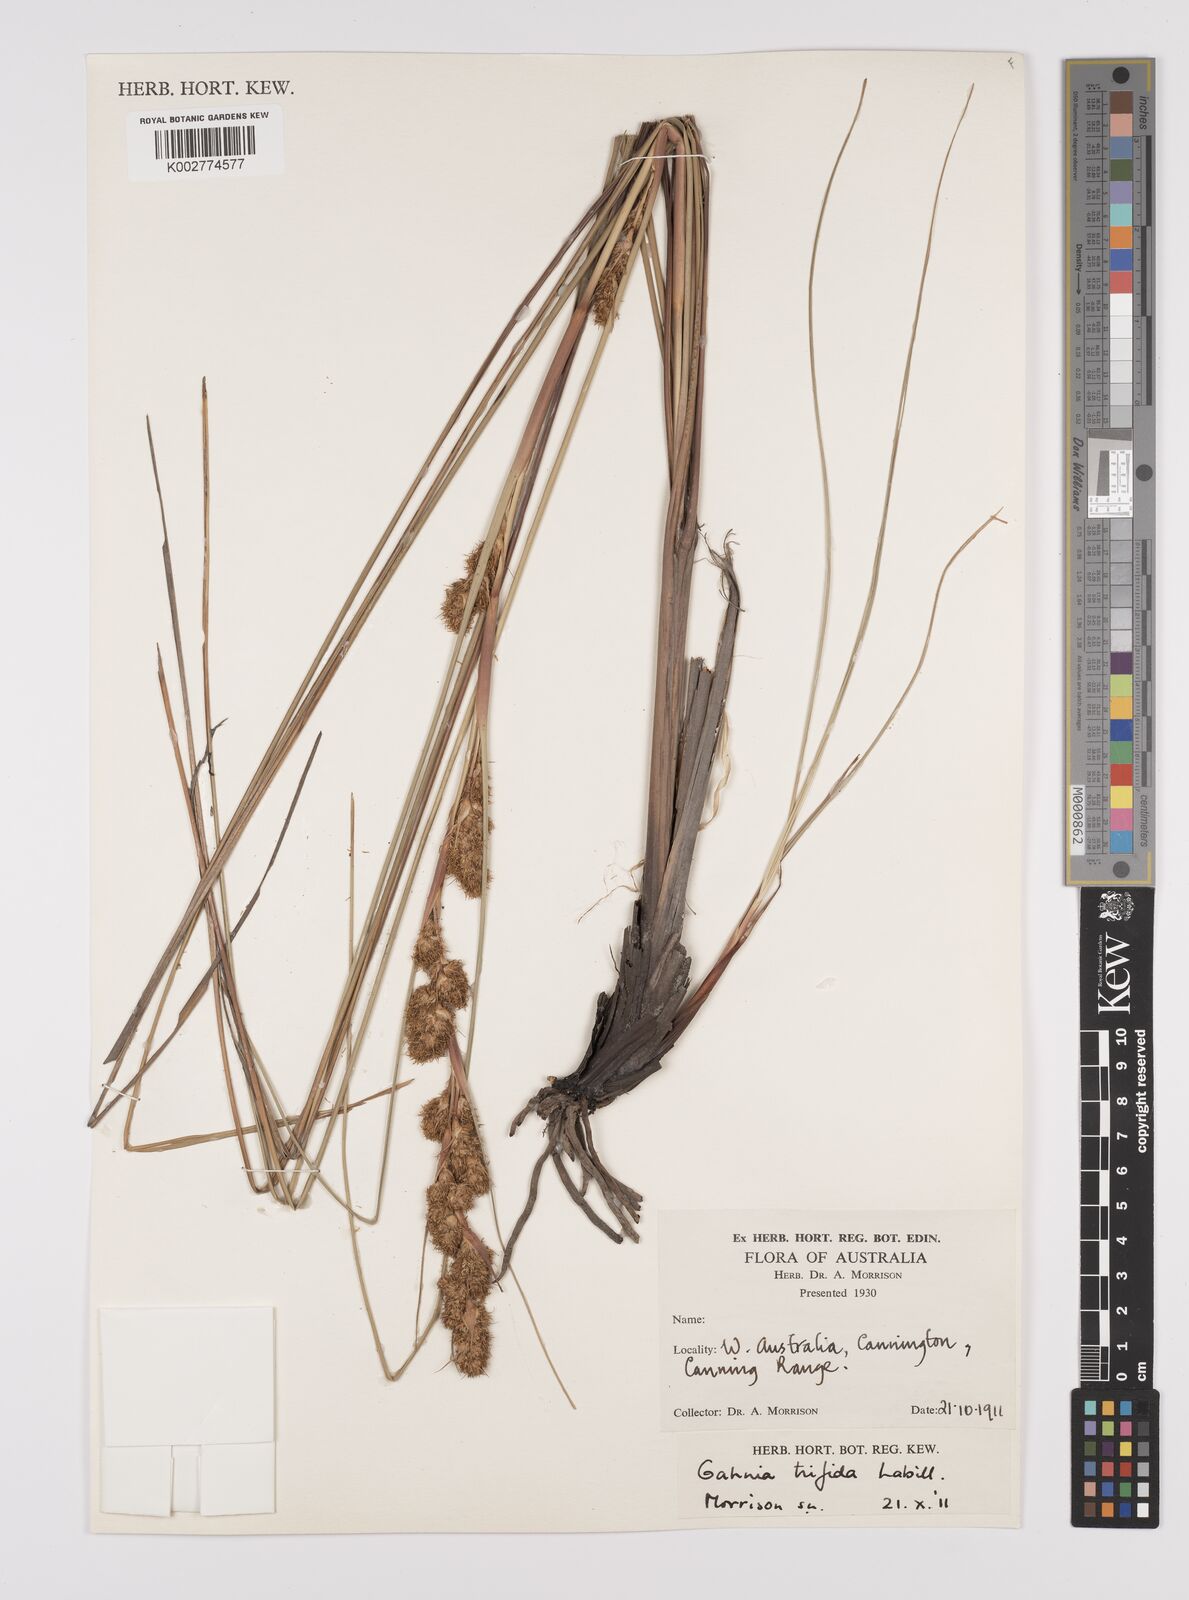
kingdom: Plantae
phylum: Tracheophyta
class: Liliopsida
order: Poales
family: Cyperaceae
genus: Gahnia
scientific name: Gahnia trifida
